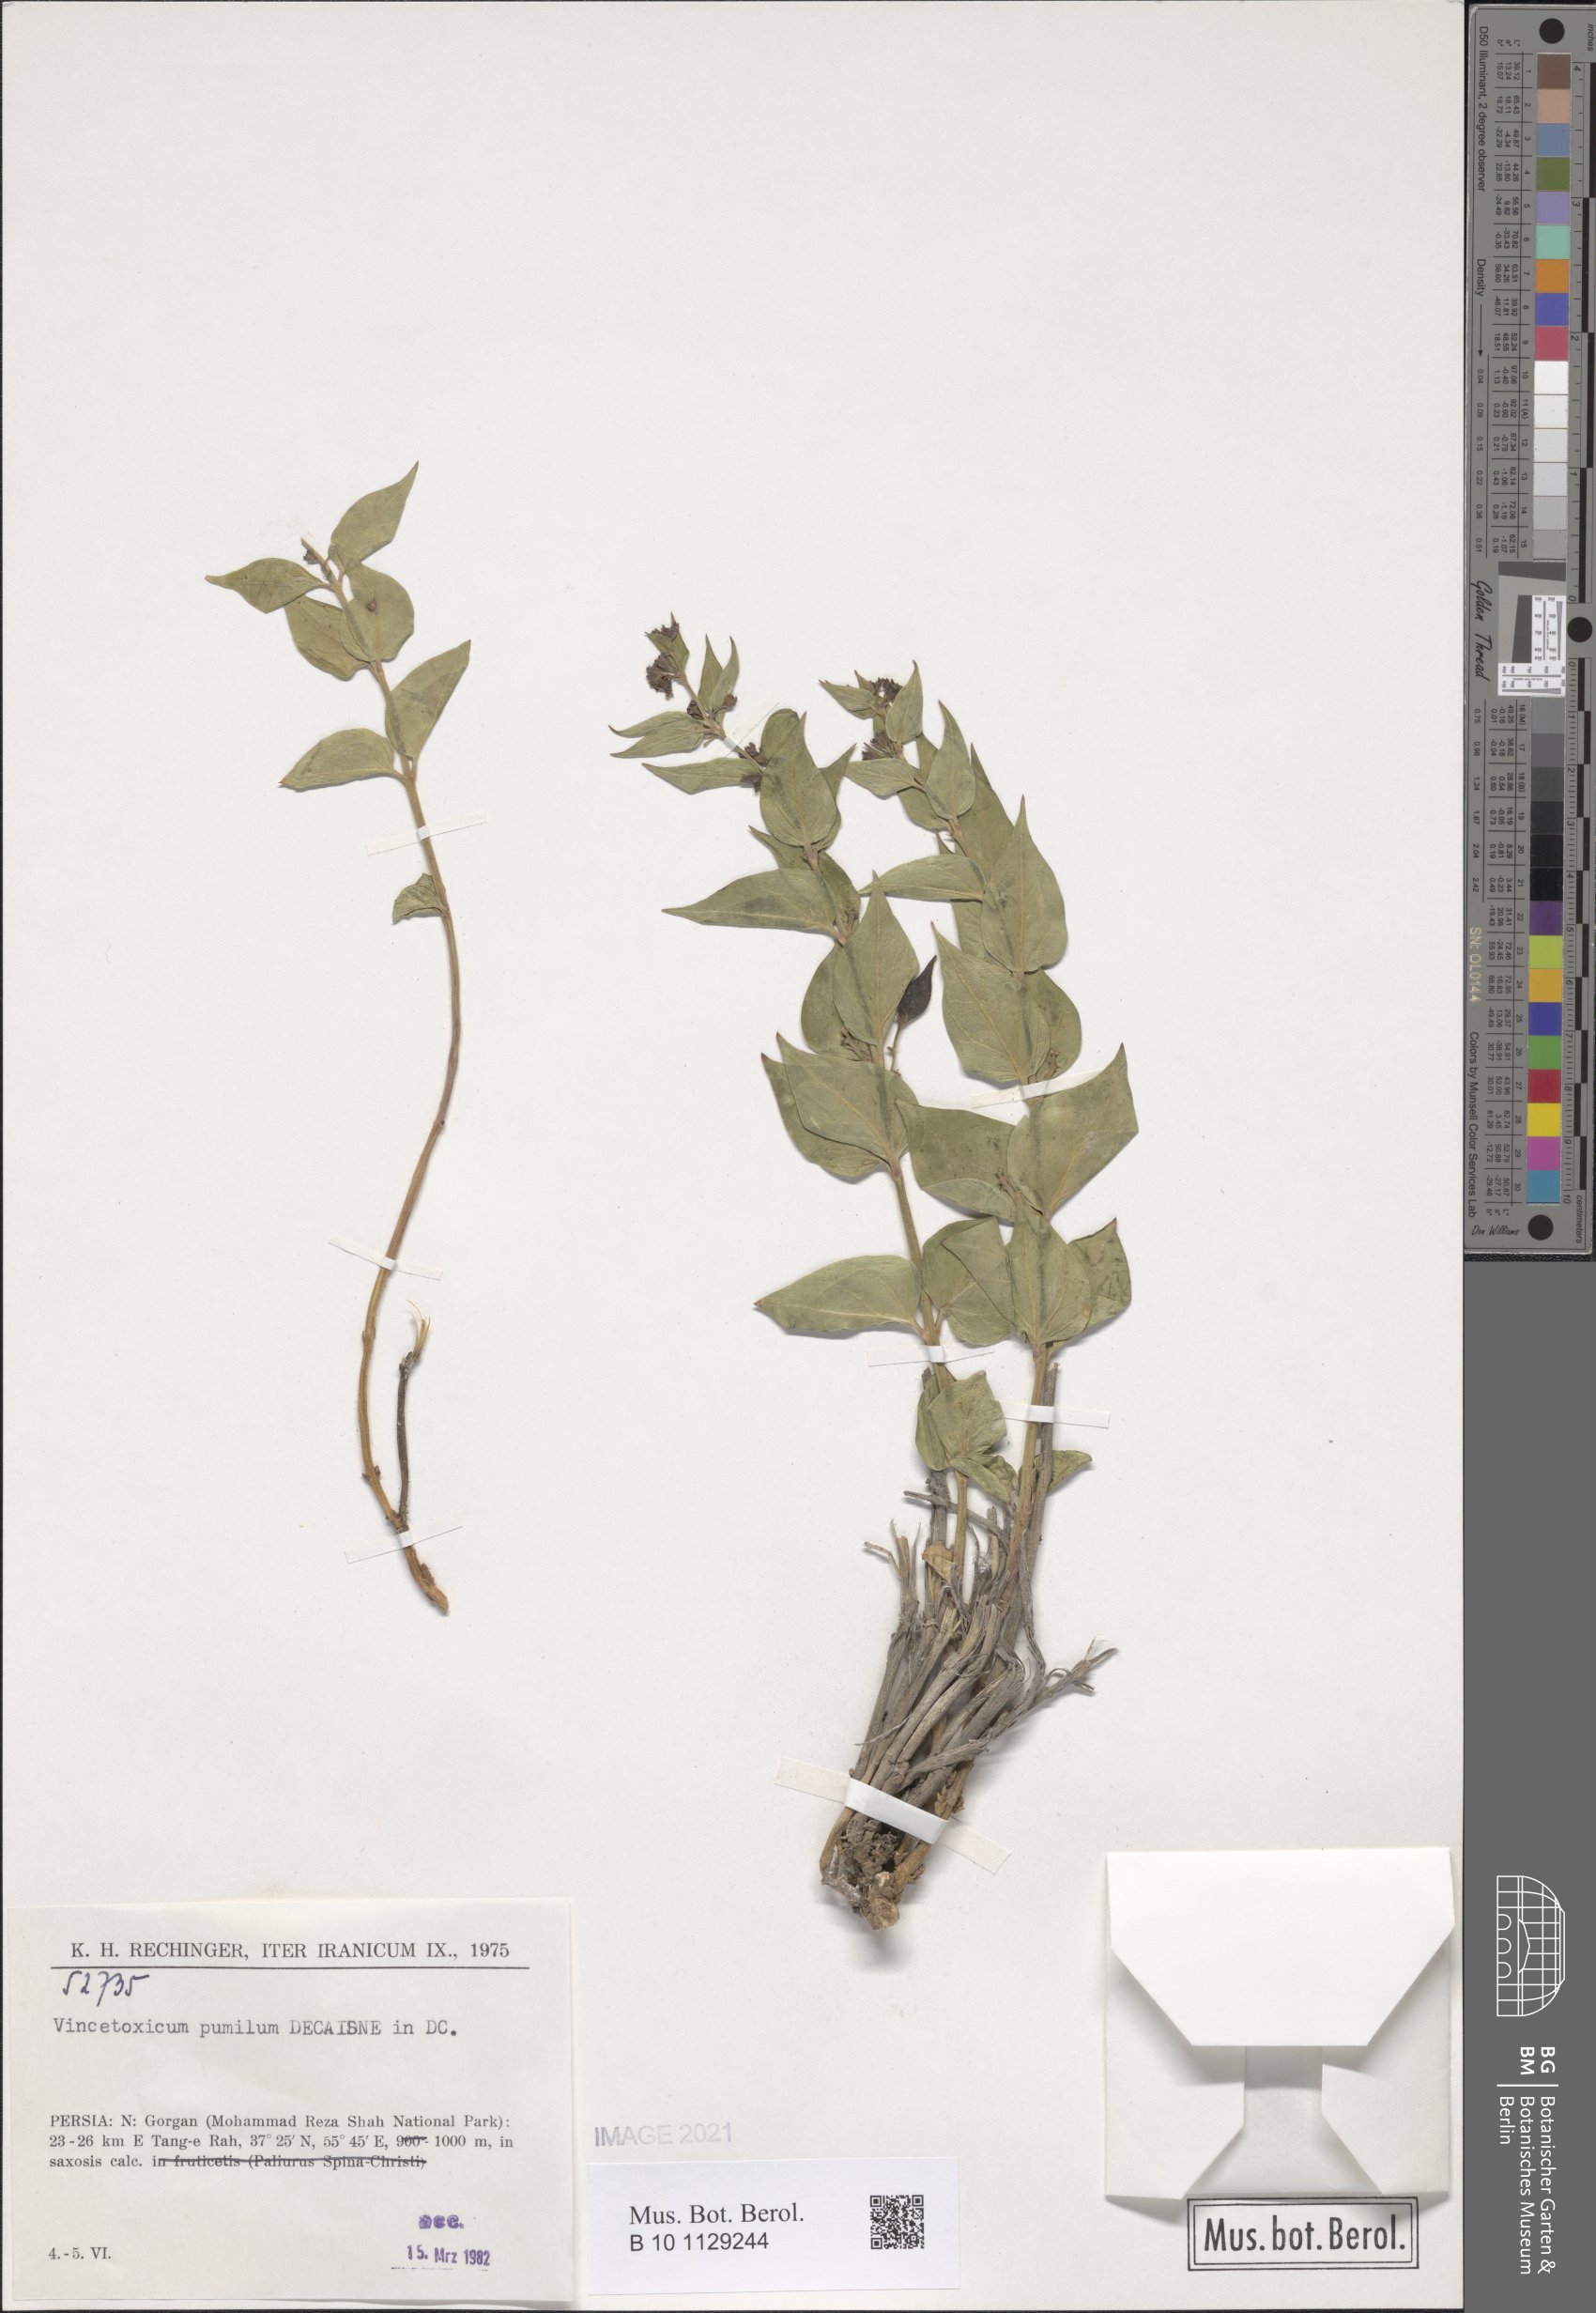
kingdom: Plantae
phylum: Tracheophyta
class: Magnoliopsida
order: Gentianales
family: Apocynaceae
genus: Vincetoxicum
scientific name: Vincetoxicum pumilum
